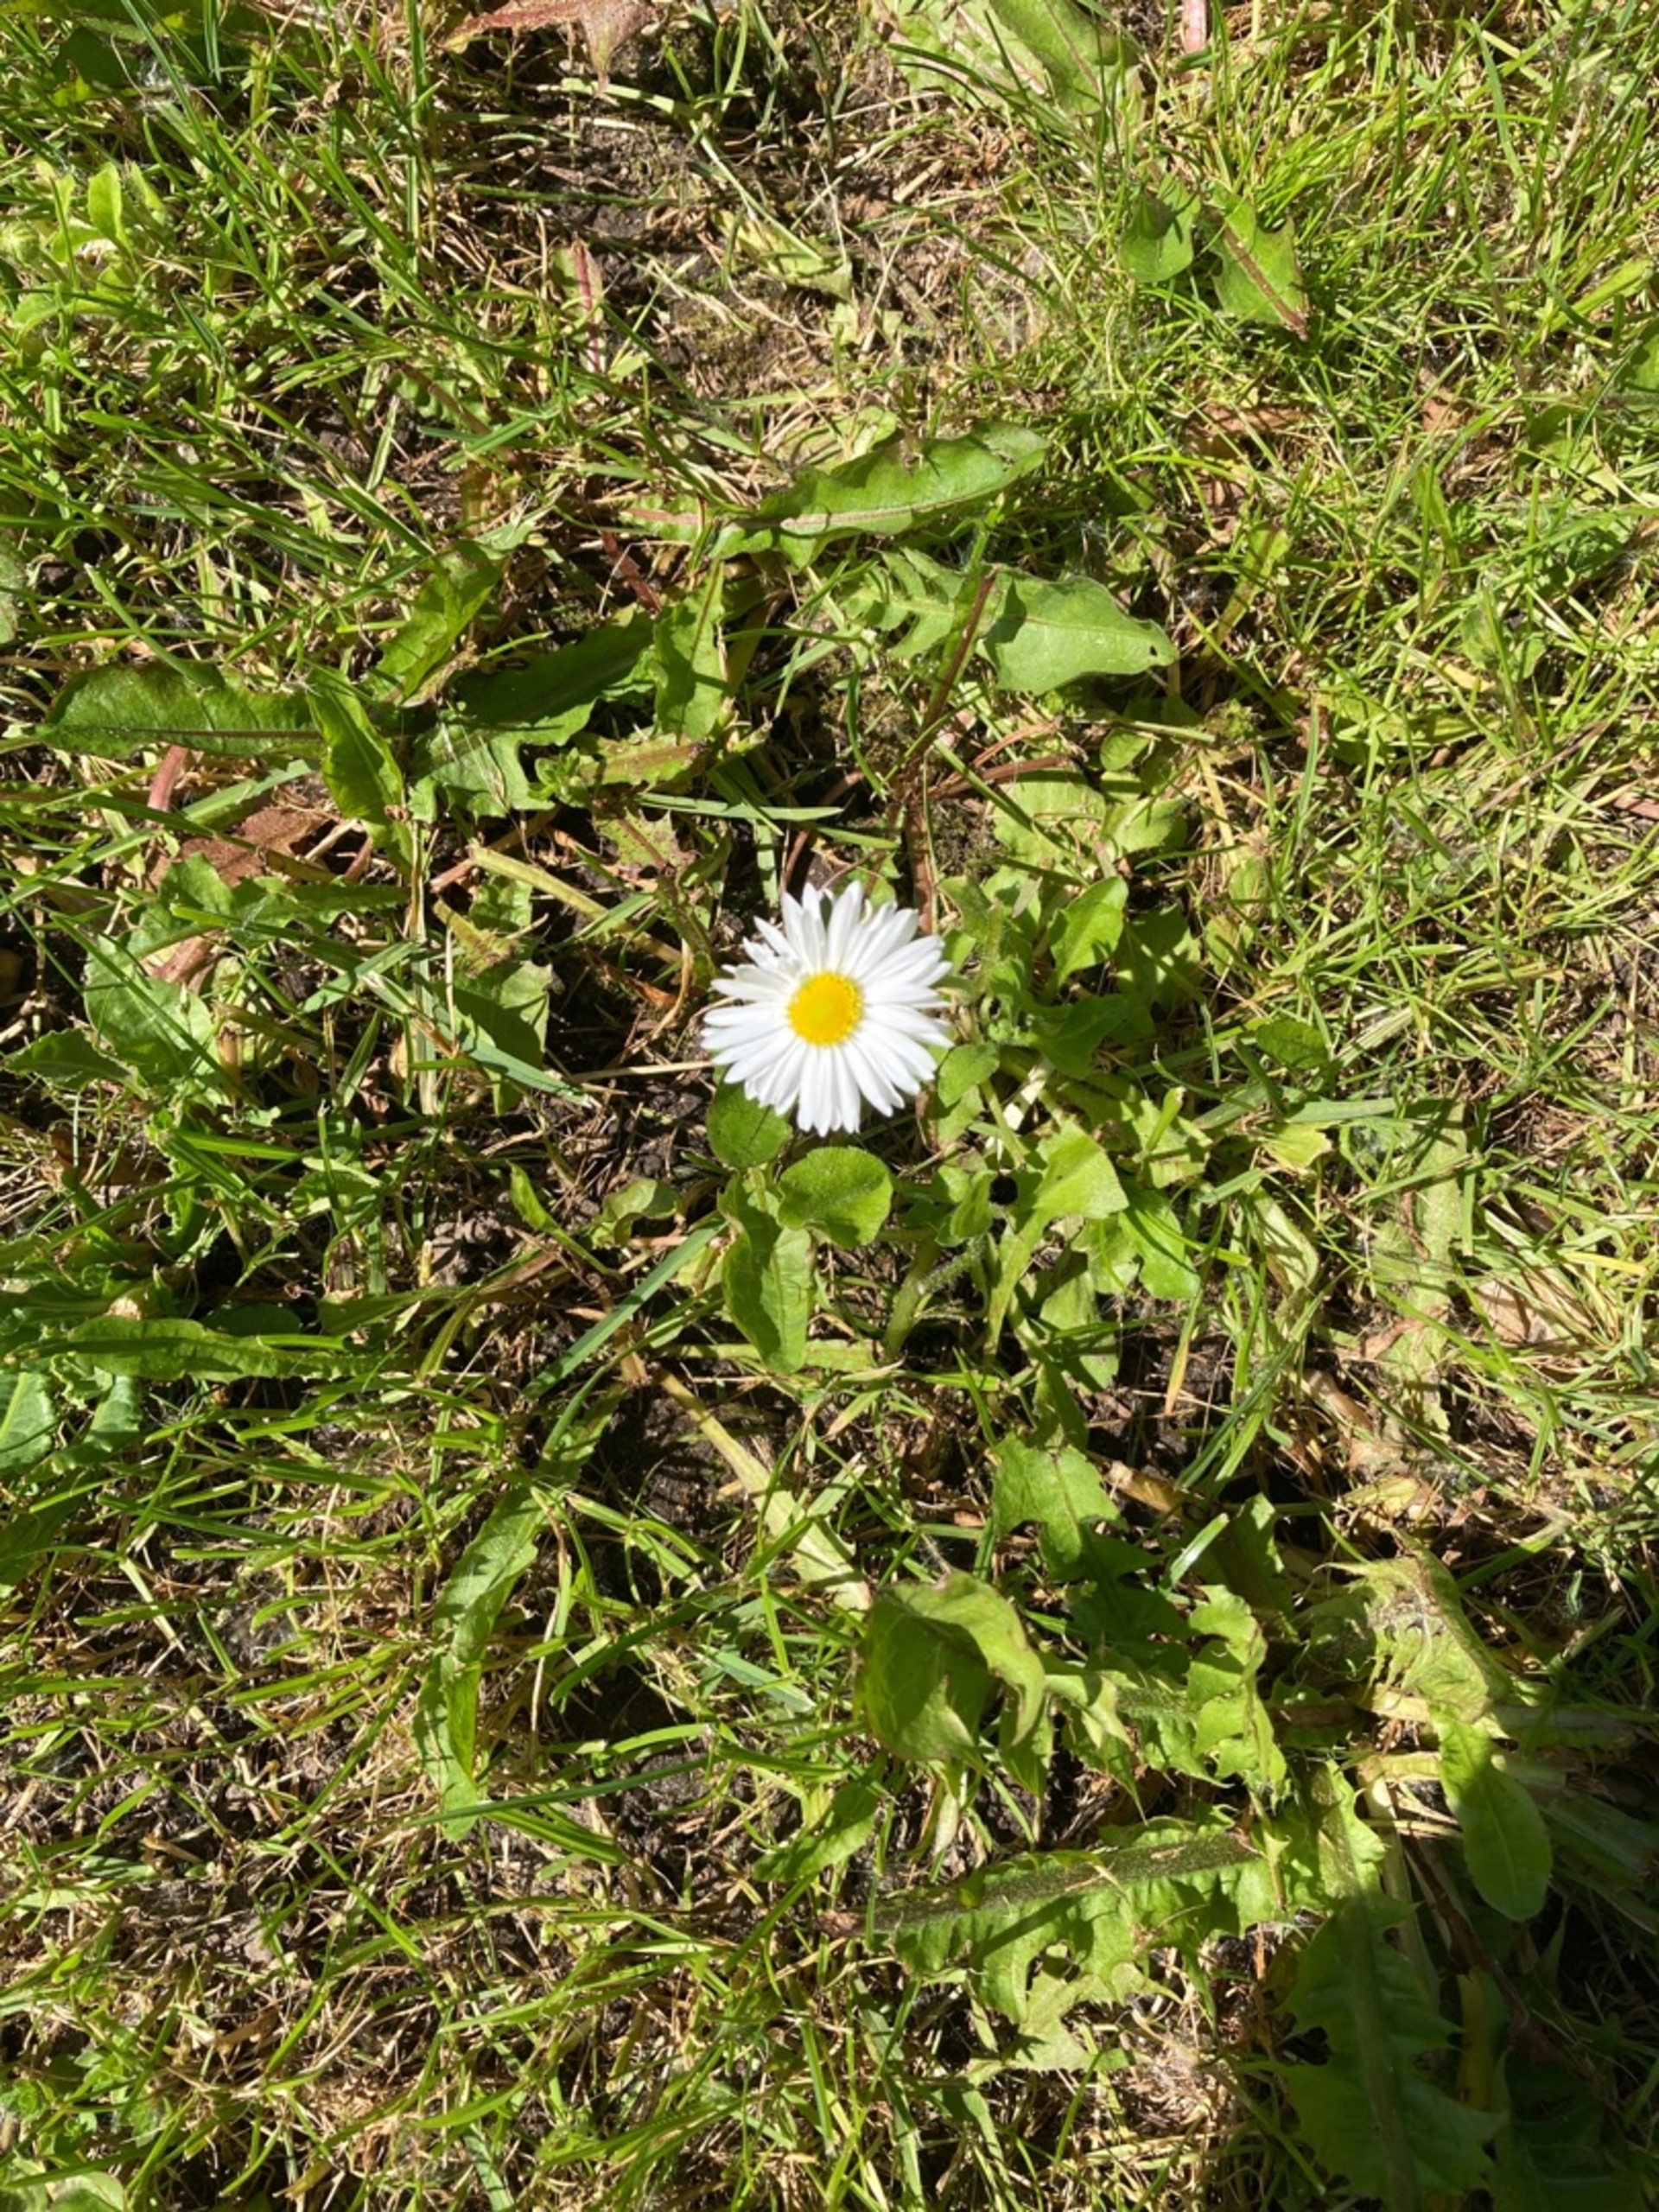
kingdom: Plantae
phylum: Tracheophyta
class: Magnoliopsida
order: Asterales
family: Asteraceae
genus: Bellis
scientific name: Bellis perennis
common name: Tusindfryd
